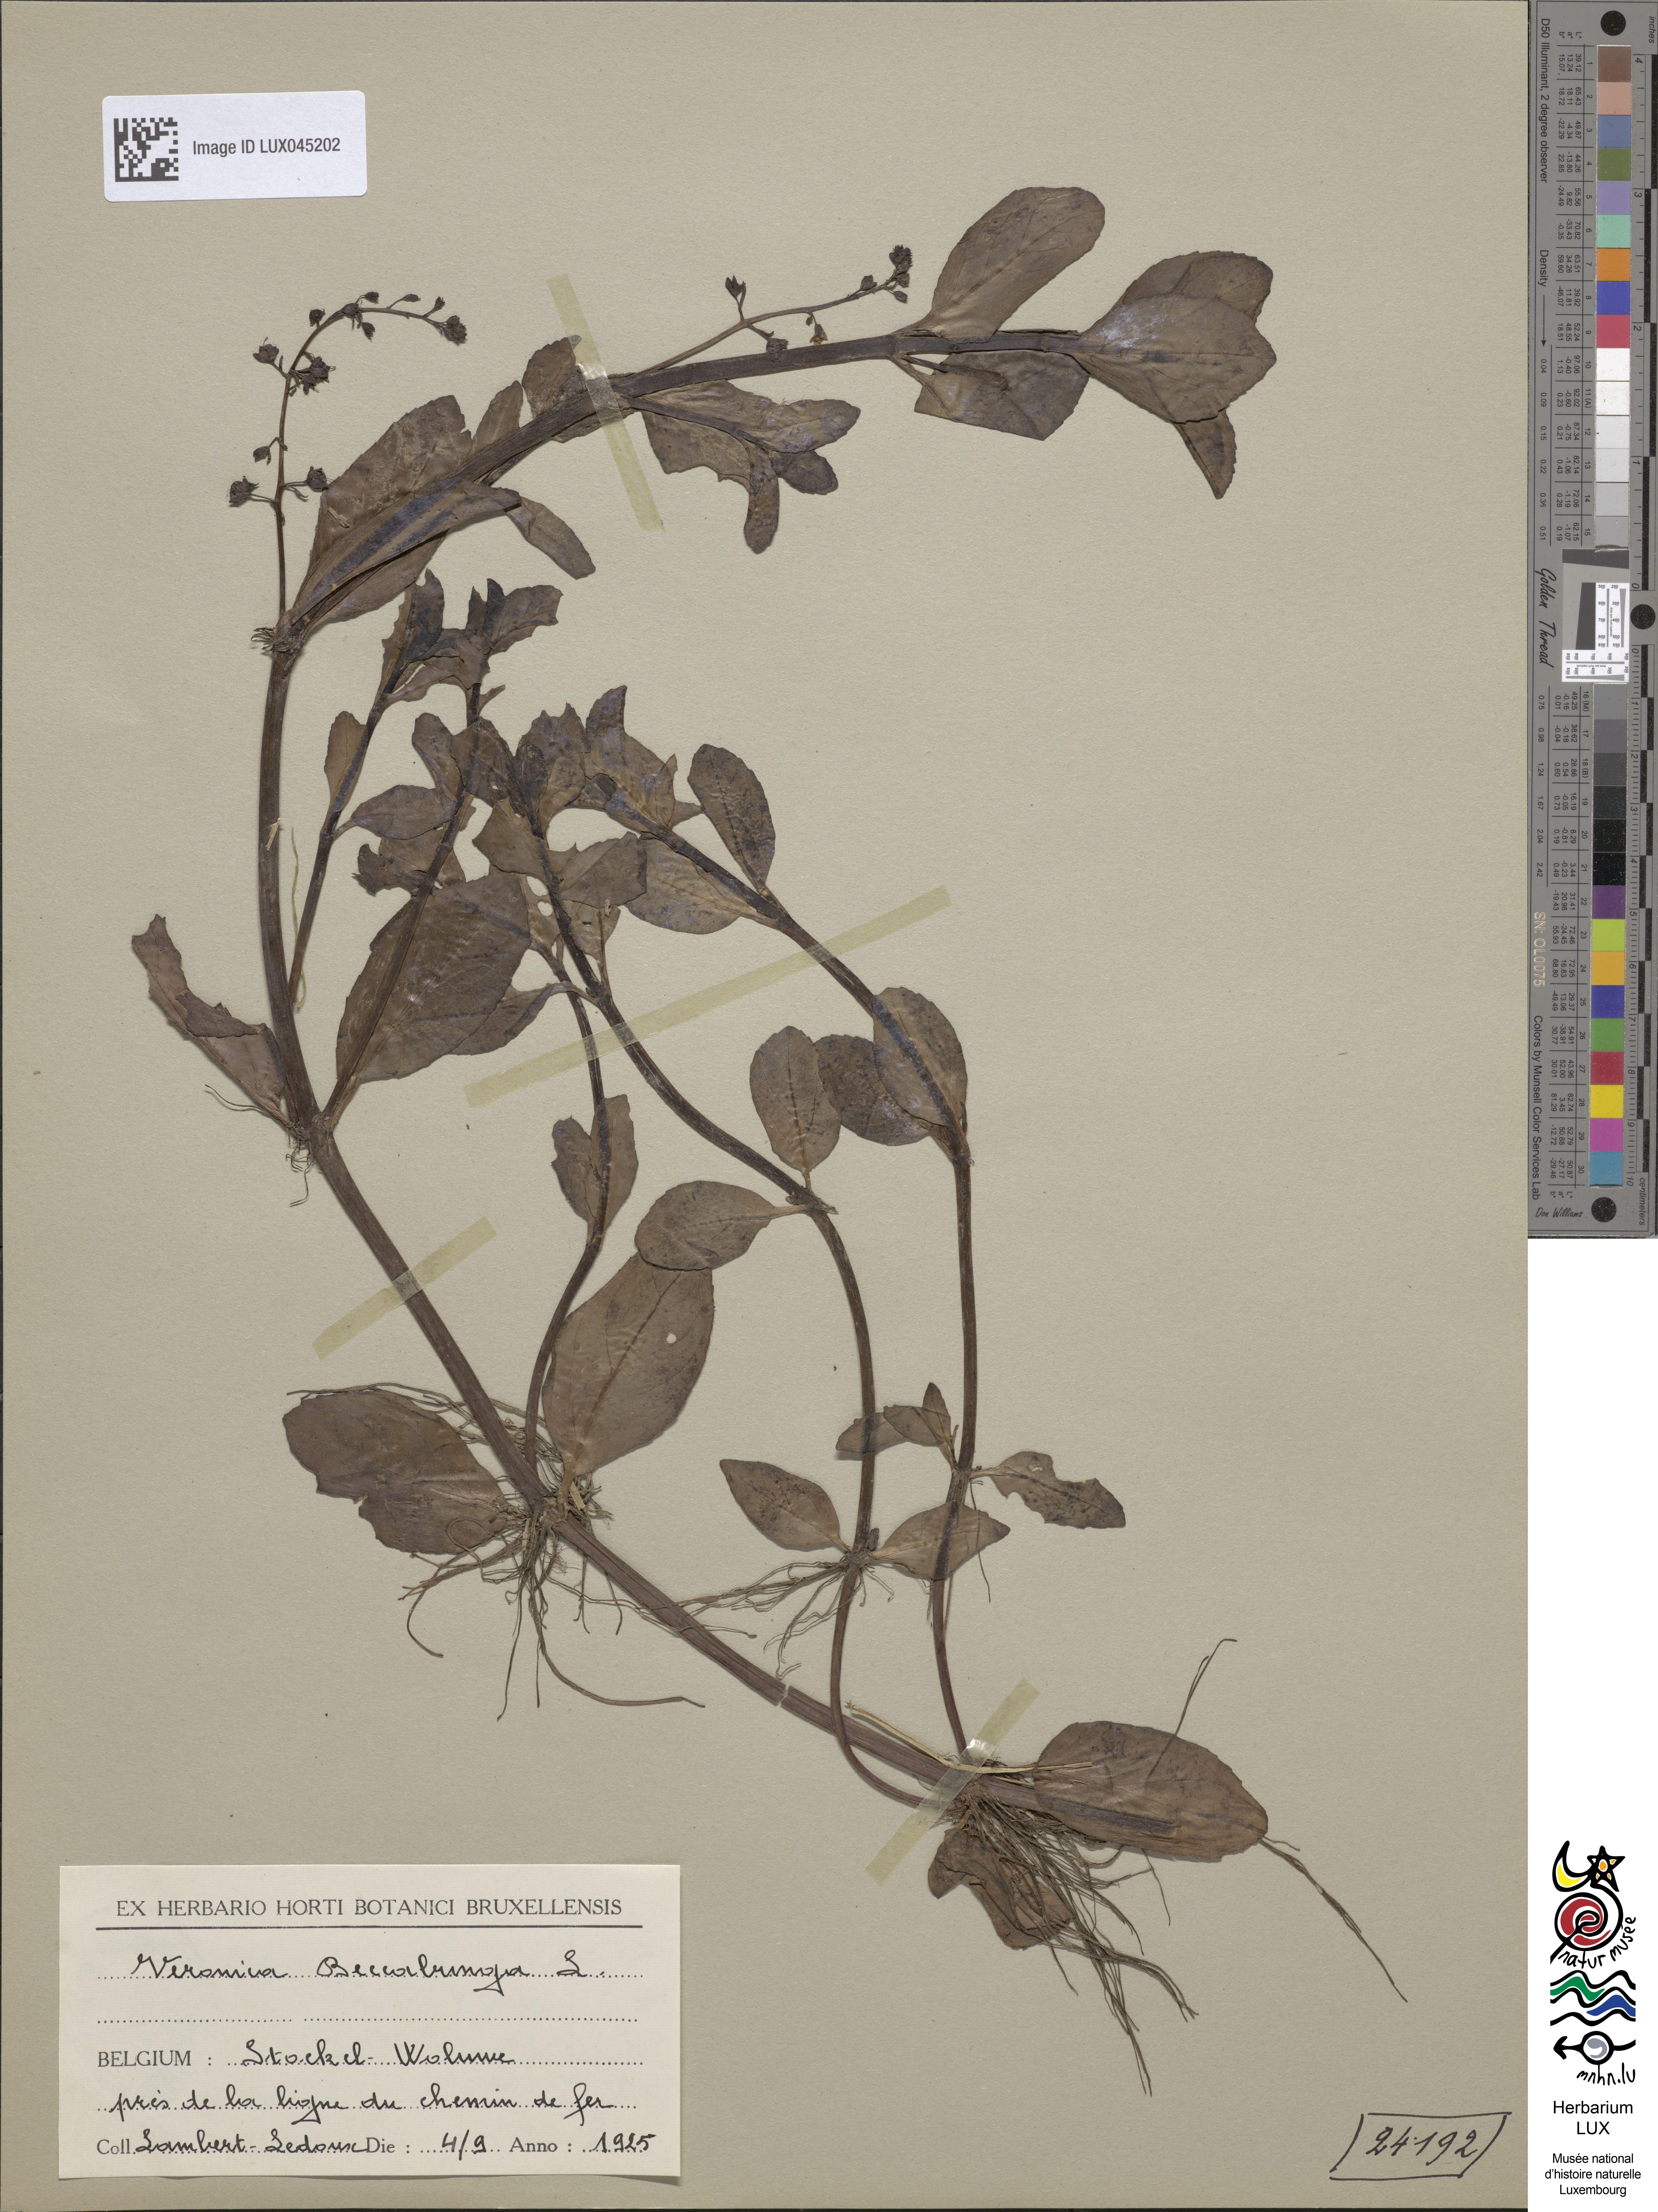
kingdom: Plantae
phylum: Tracheophyta
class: Magnoliopsida
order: Lamiales
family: Plantaginaceae
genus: Veronica
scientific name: Veronica beccabunga
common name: Brooklime
